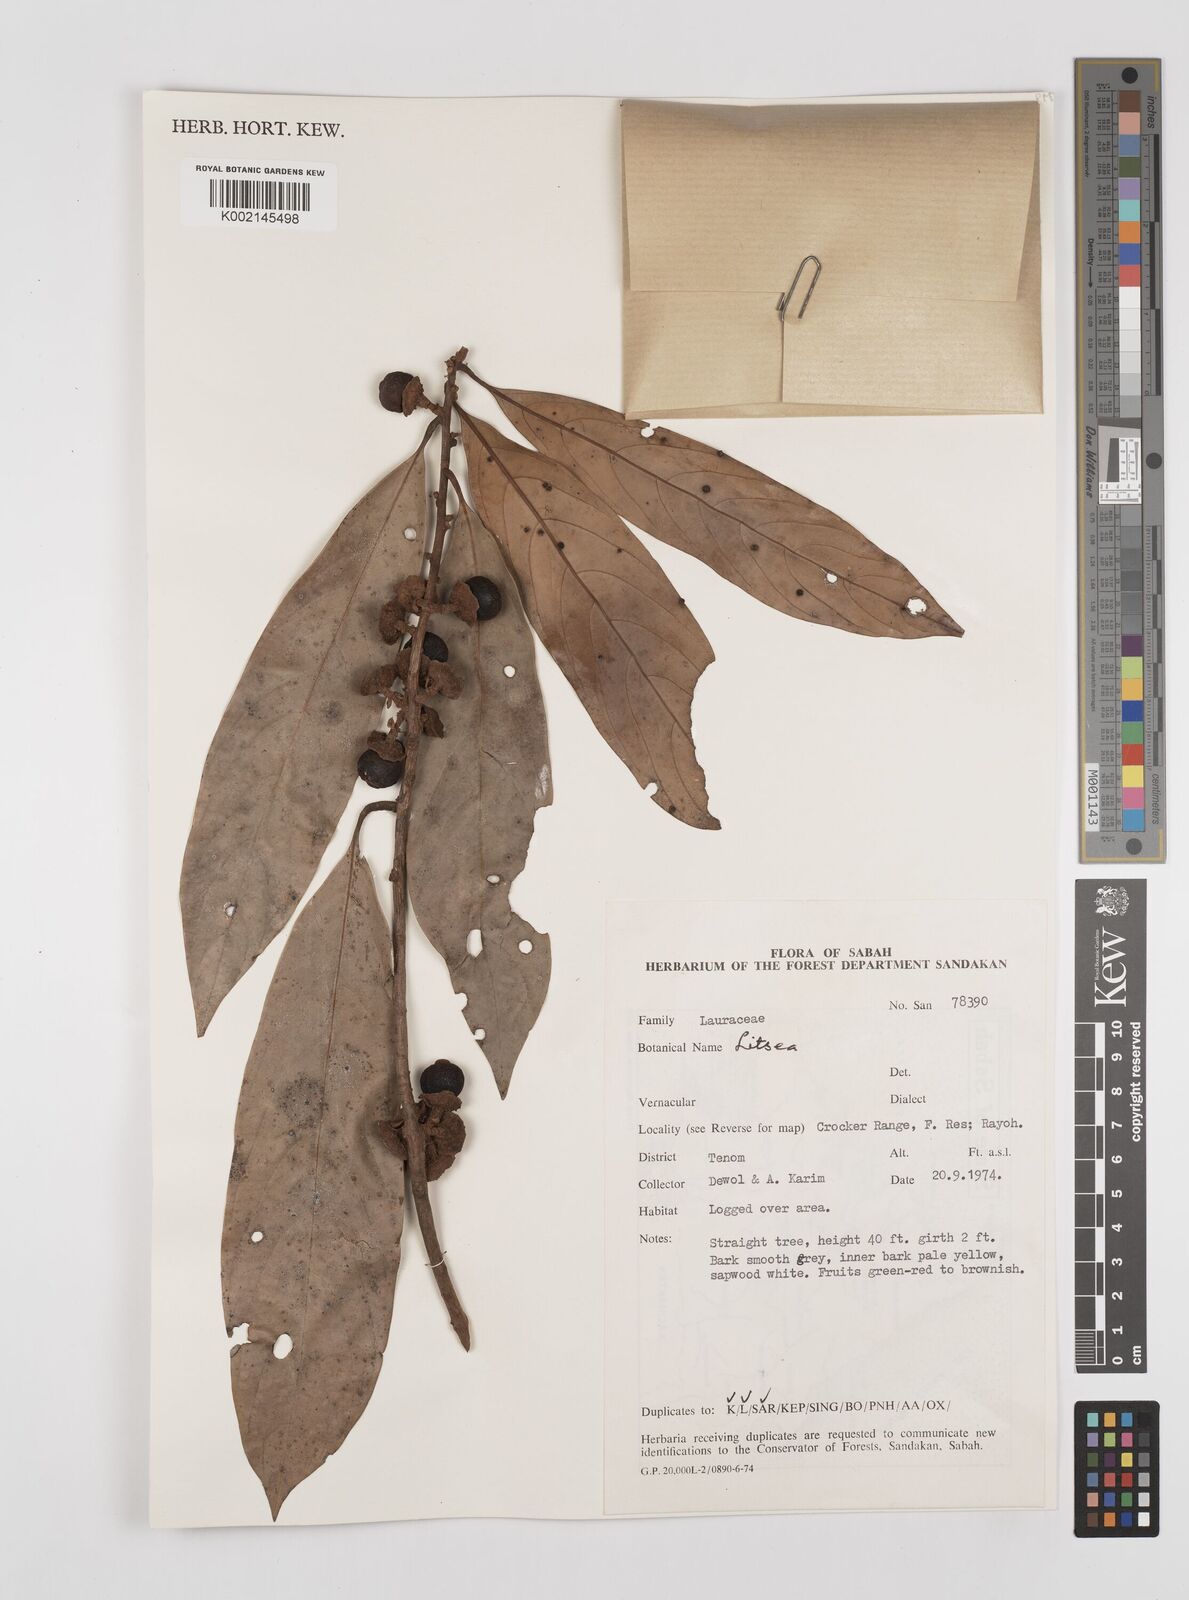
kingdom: Plantae
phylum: Tracheophyta
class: Magnoliopsida
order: Laurales
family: Lauraceae
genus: Litsea
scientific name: Litsea
